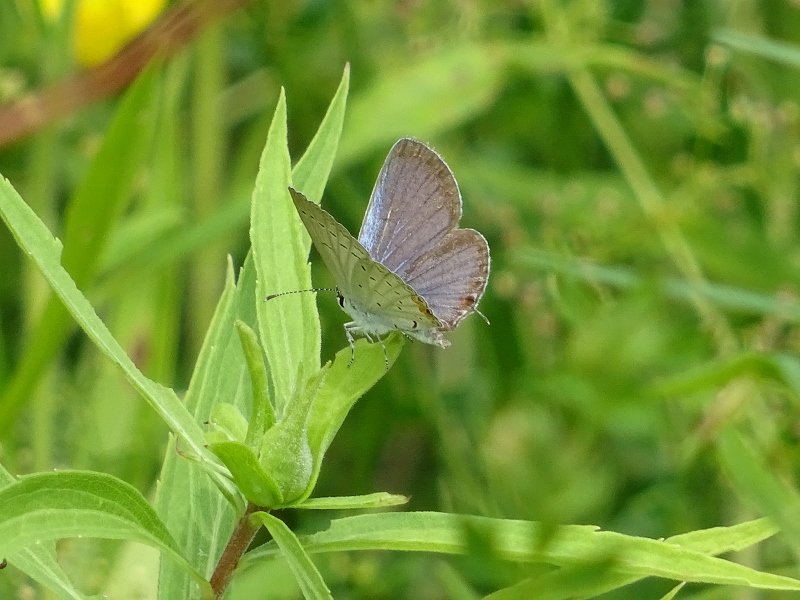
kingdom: Animalia
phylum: Arthropoda
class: Insecta
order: Lepidoptera
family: Lycaenidae
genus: Elkalyce
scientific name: Elkalyce comyntas
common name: Eastern Tailed-Blue
